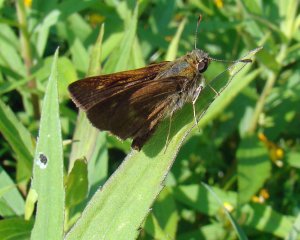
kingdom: Animalia
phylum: Arthropoda
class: Insecta
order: Lepidoptera
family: Hesperiidae
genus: Euphyes
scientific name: Euphyes vestris
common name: Dun Skipper
